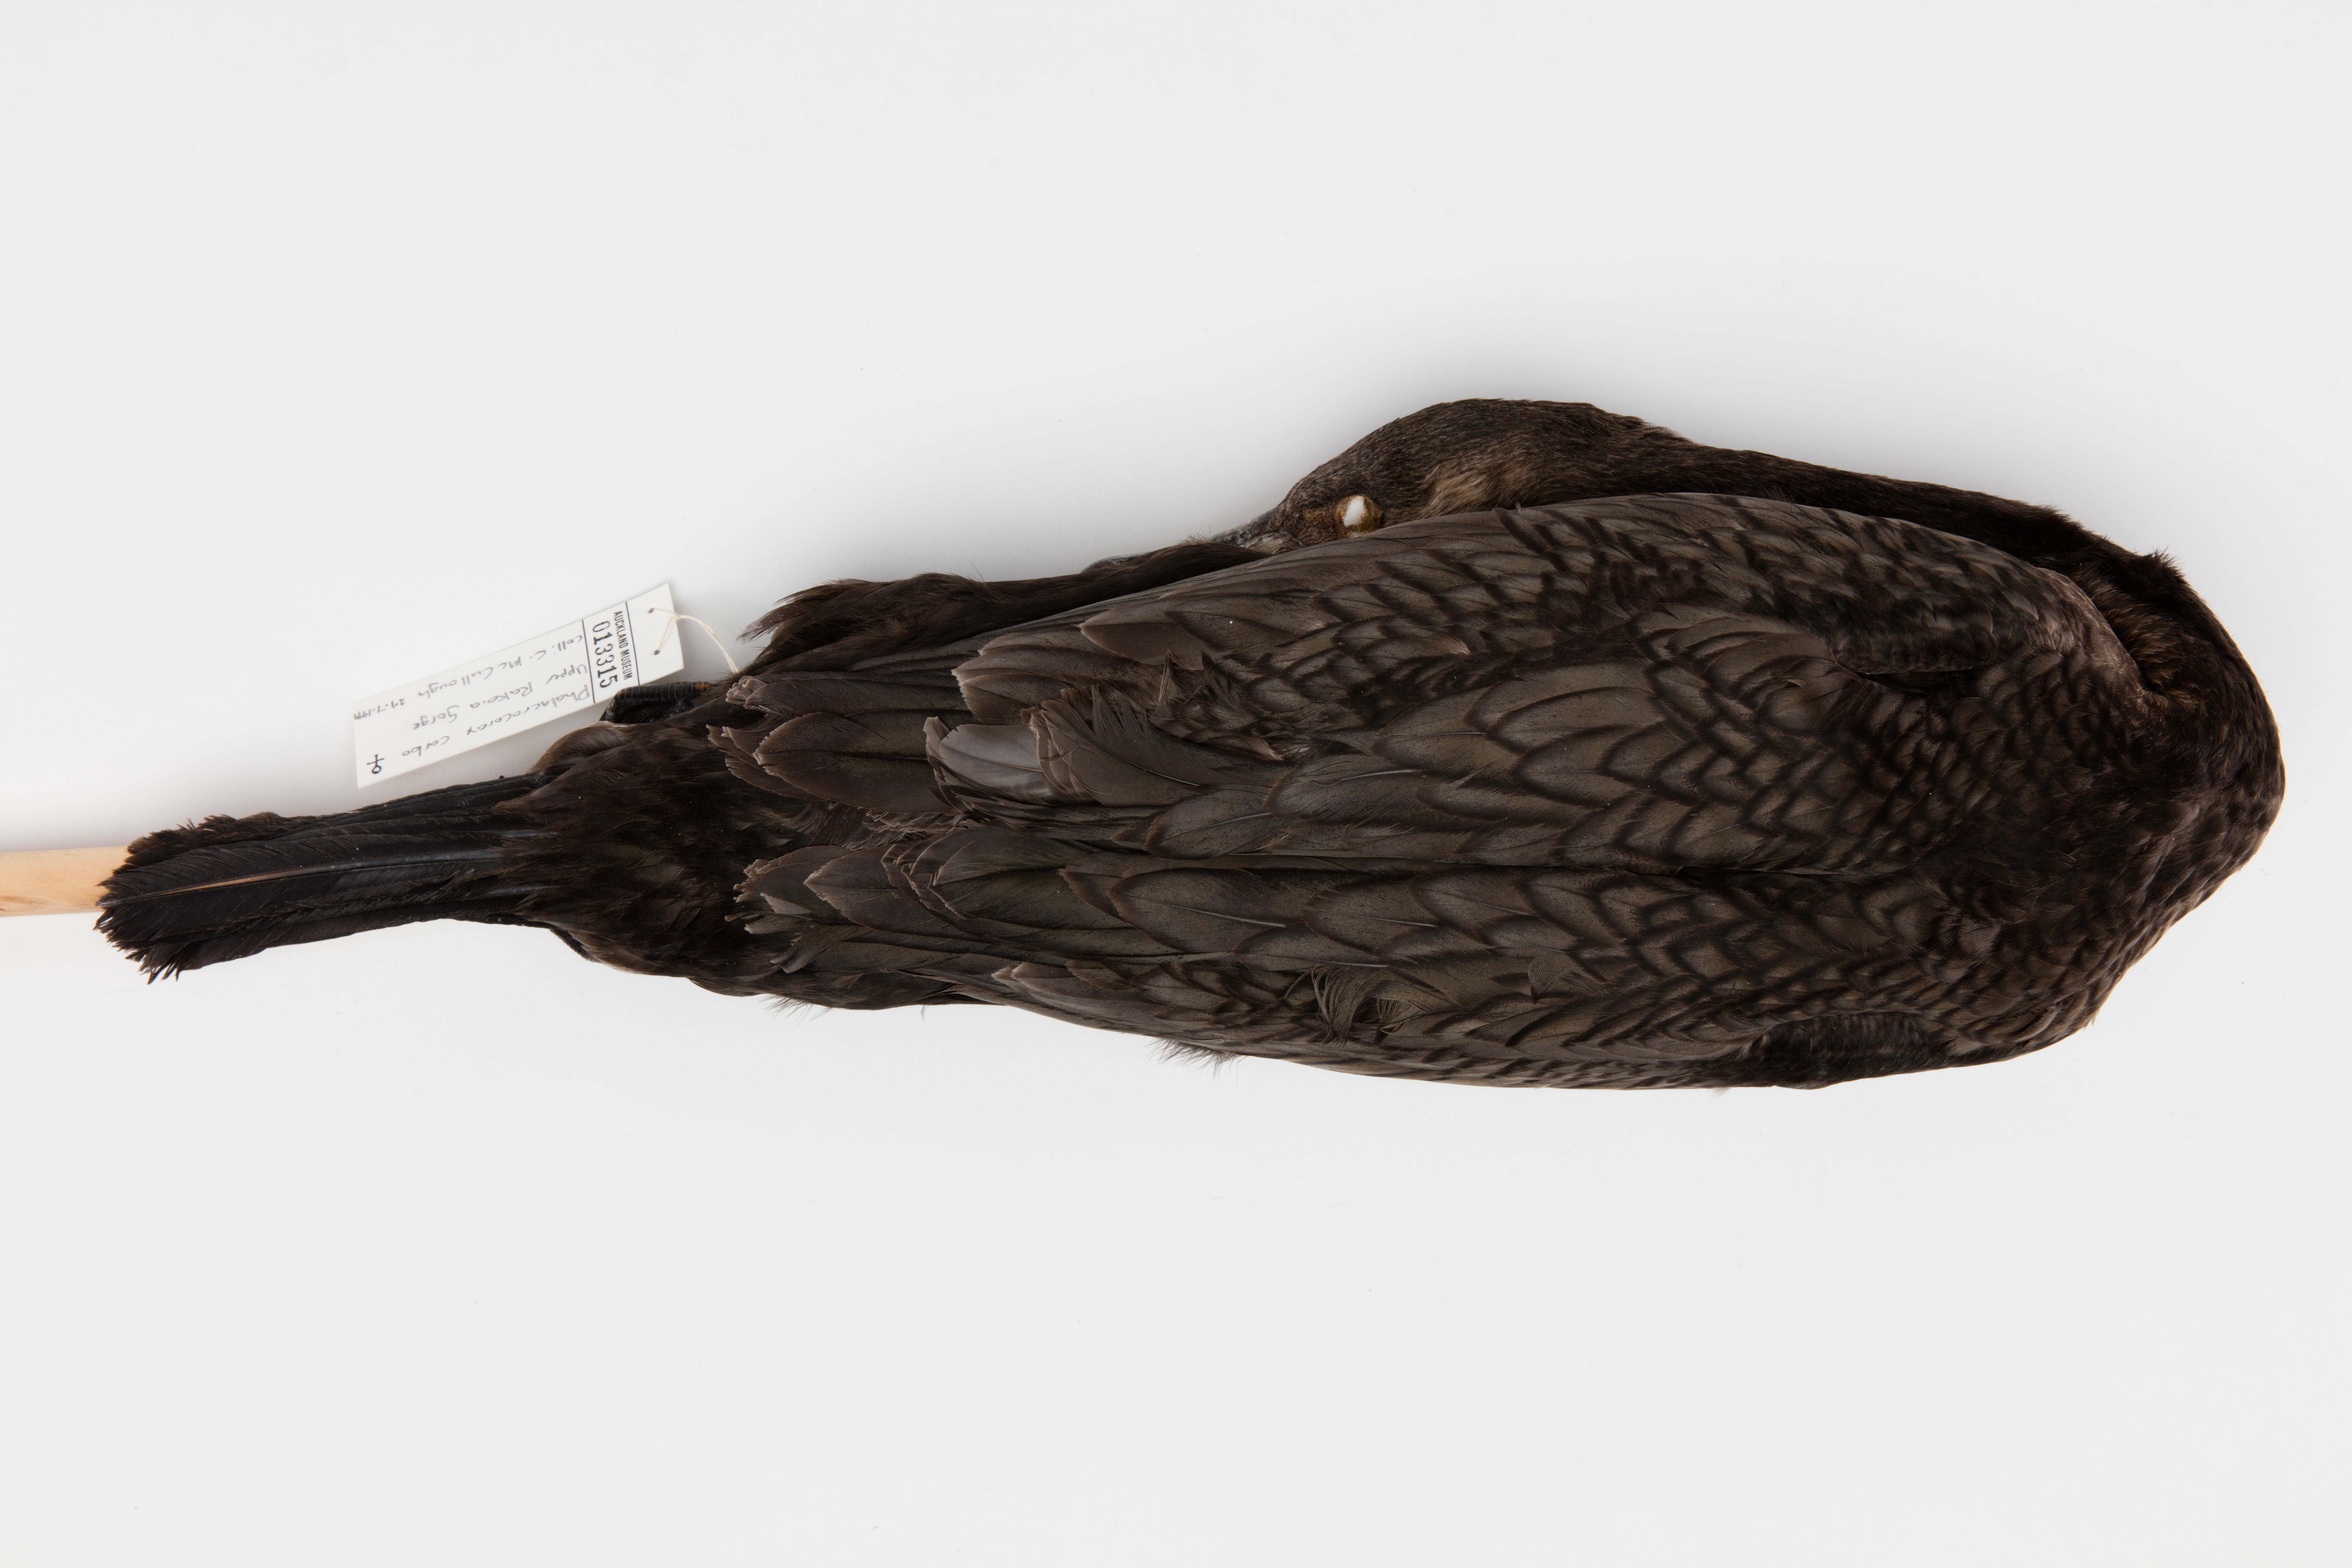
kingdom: Animalia
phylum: Chordata
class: Aves
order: Suliformes
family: Phalacrocoracidae
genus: Phalacrocorax
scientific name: Phalacrocorax carbo
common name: Great cormorant
